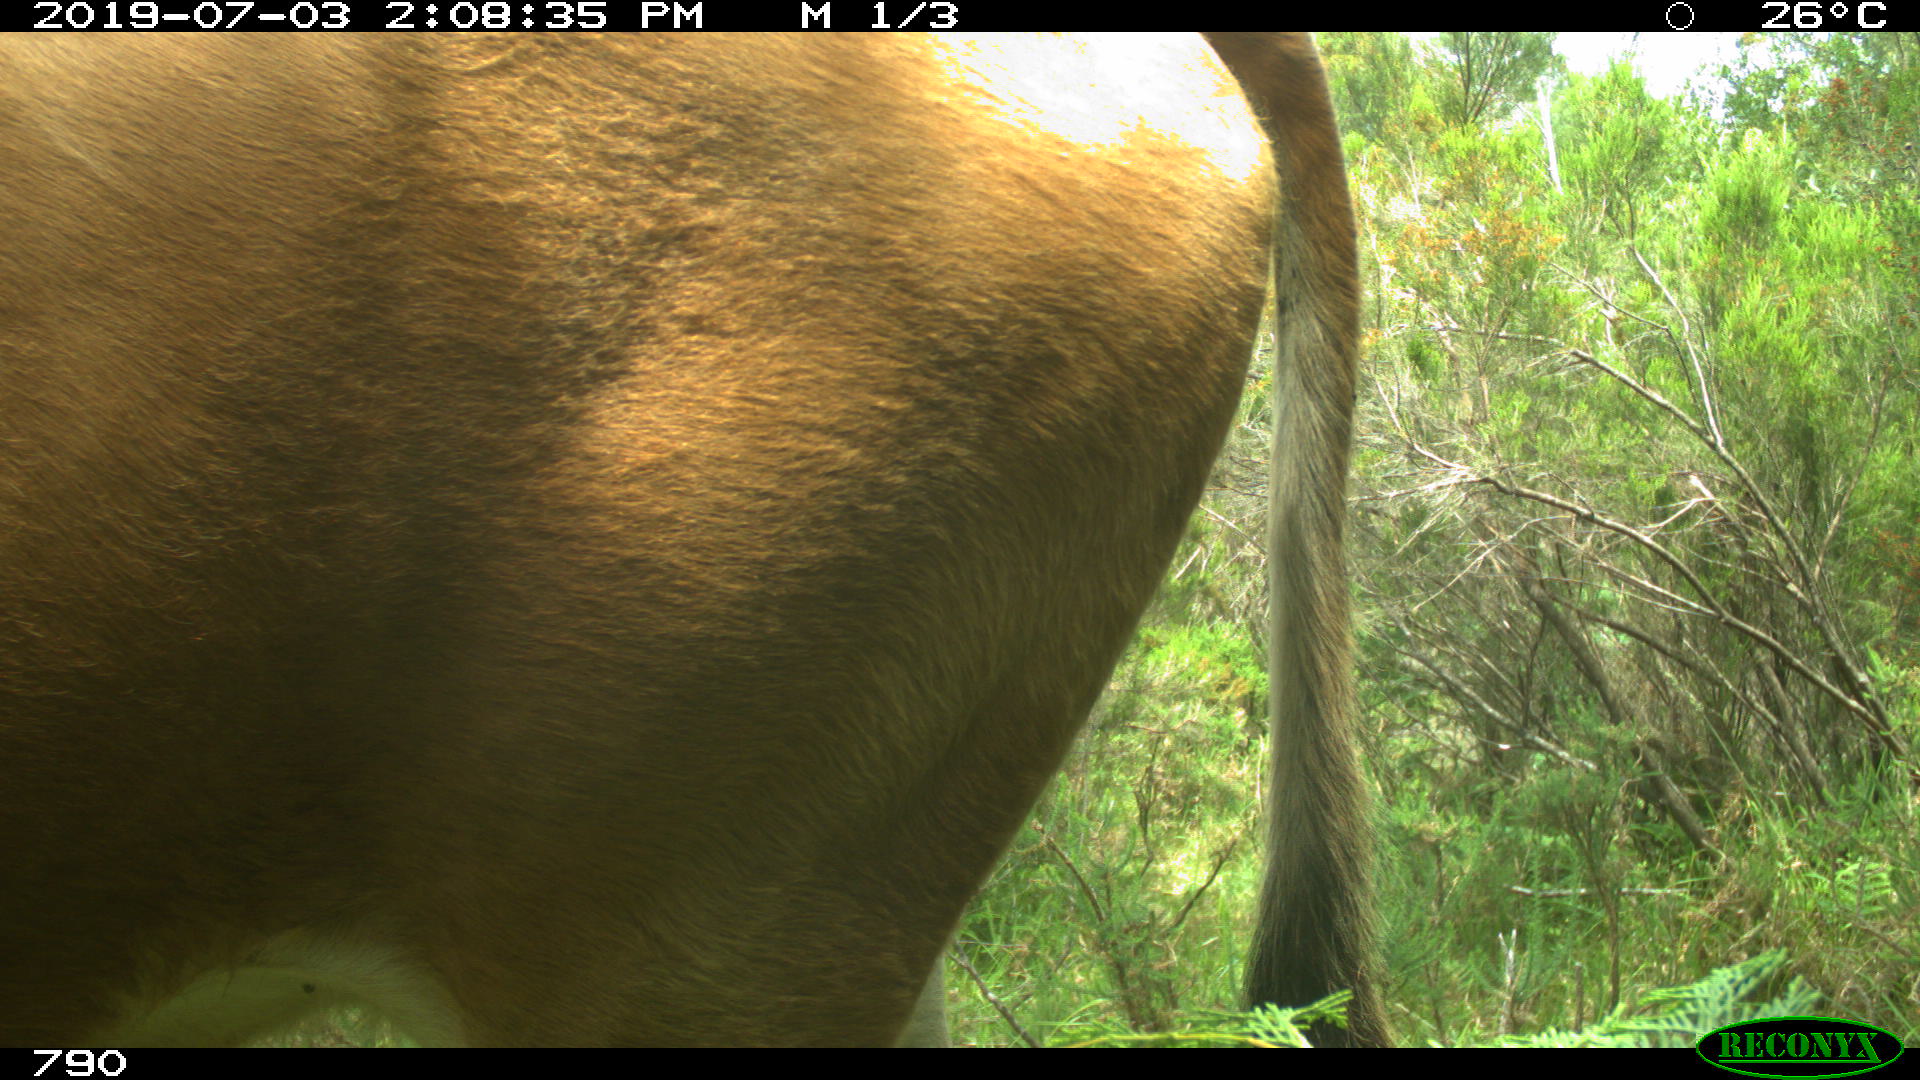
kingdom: Animalia
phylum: Chordata
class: Mammalia
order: Artiodactyla
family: Bovidae
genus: Bos
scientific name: Bos taurus
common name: Domesticated cattle
